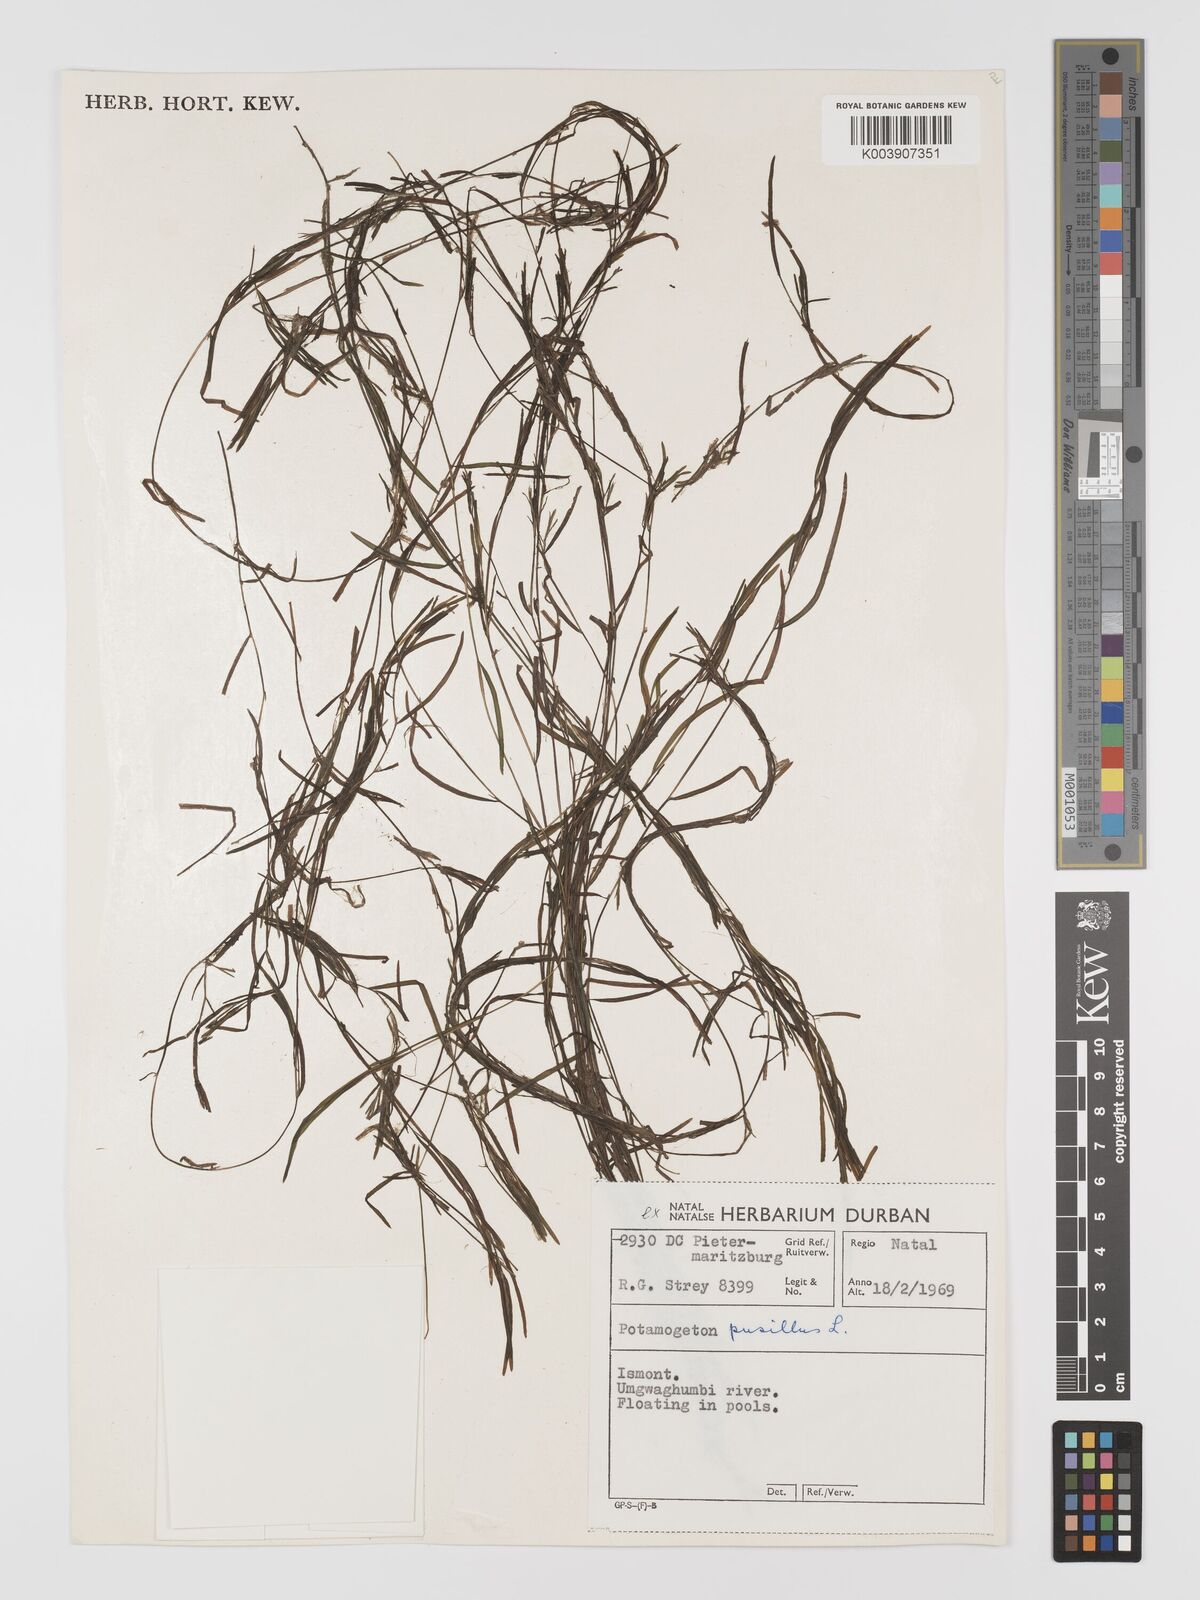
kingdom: Plantae
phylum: Tracheophyta
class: Liliopsida
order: Alismatales
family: Potamogetonaceae
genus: Potamogeton
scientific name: Potamogeton pusillus
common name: Lesser pondweed
